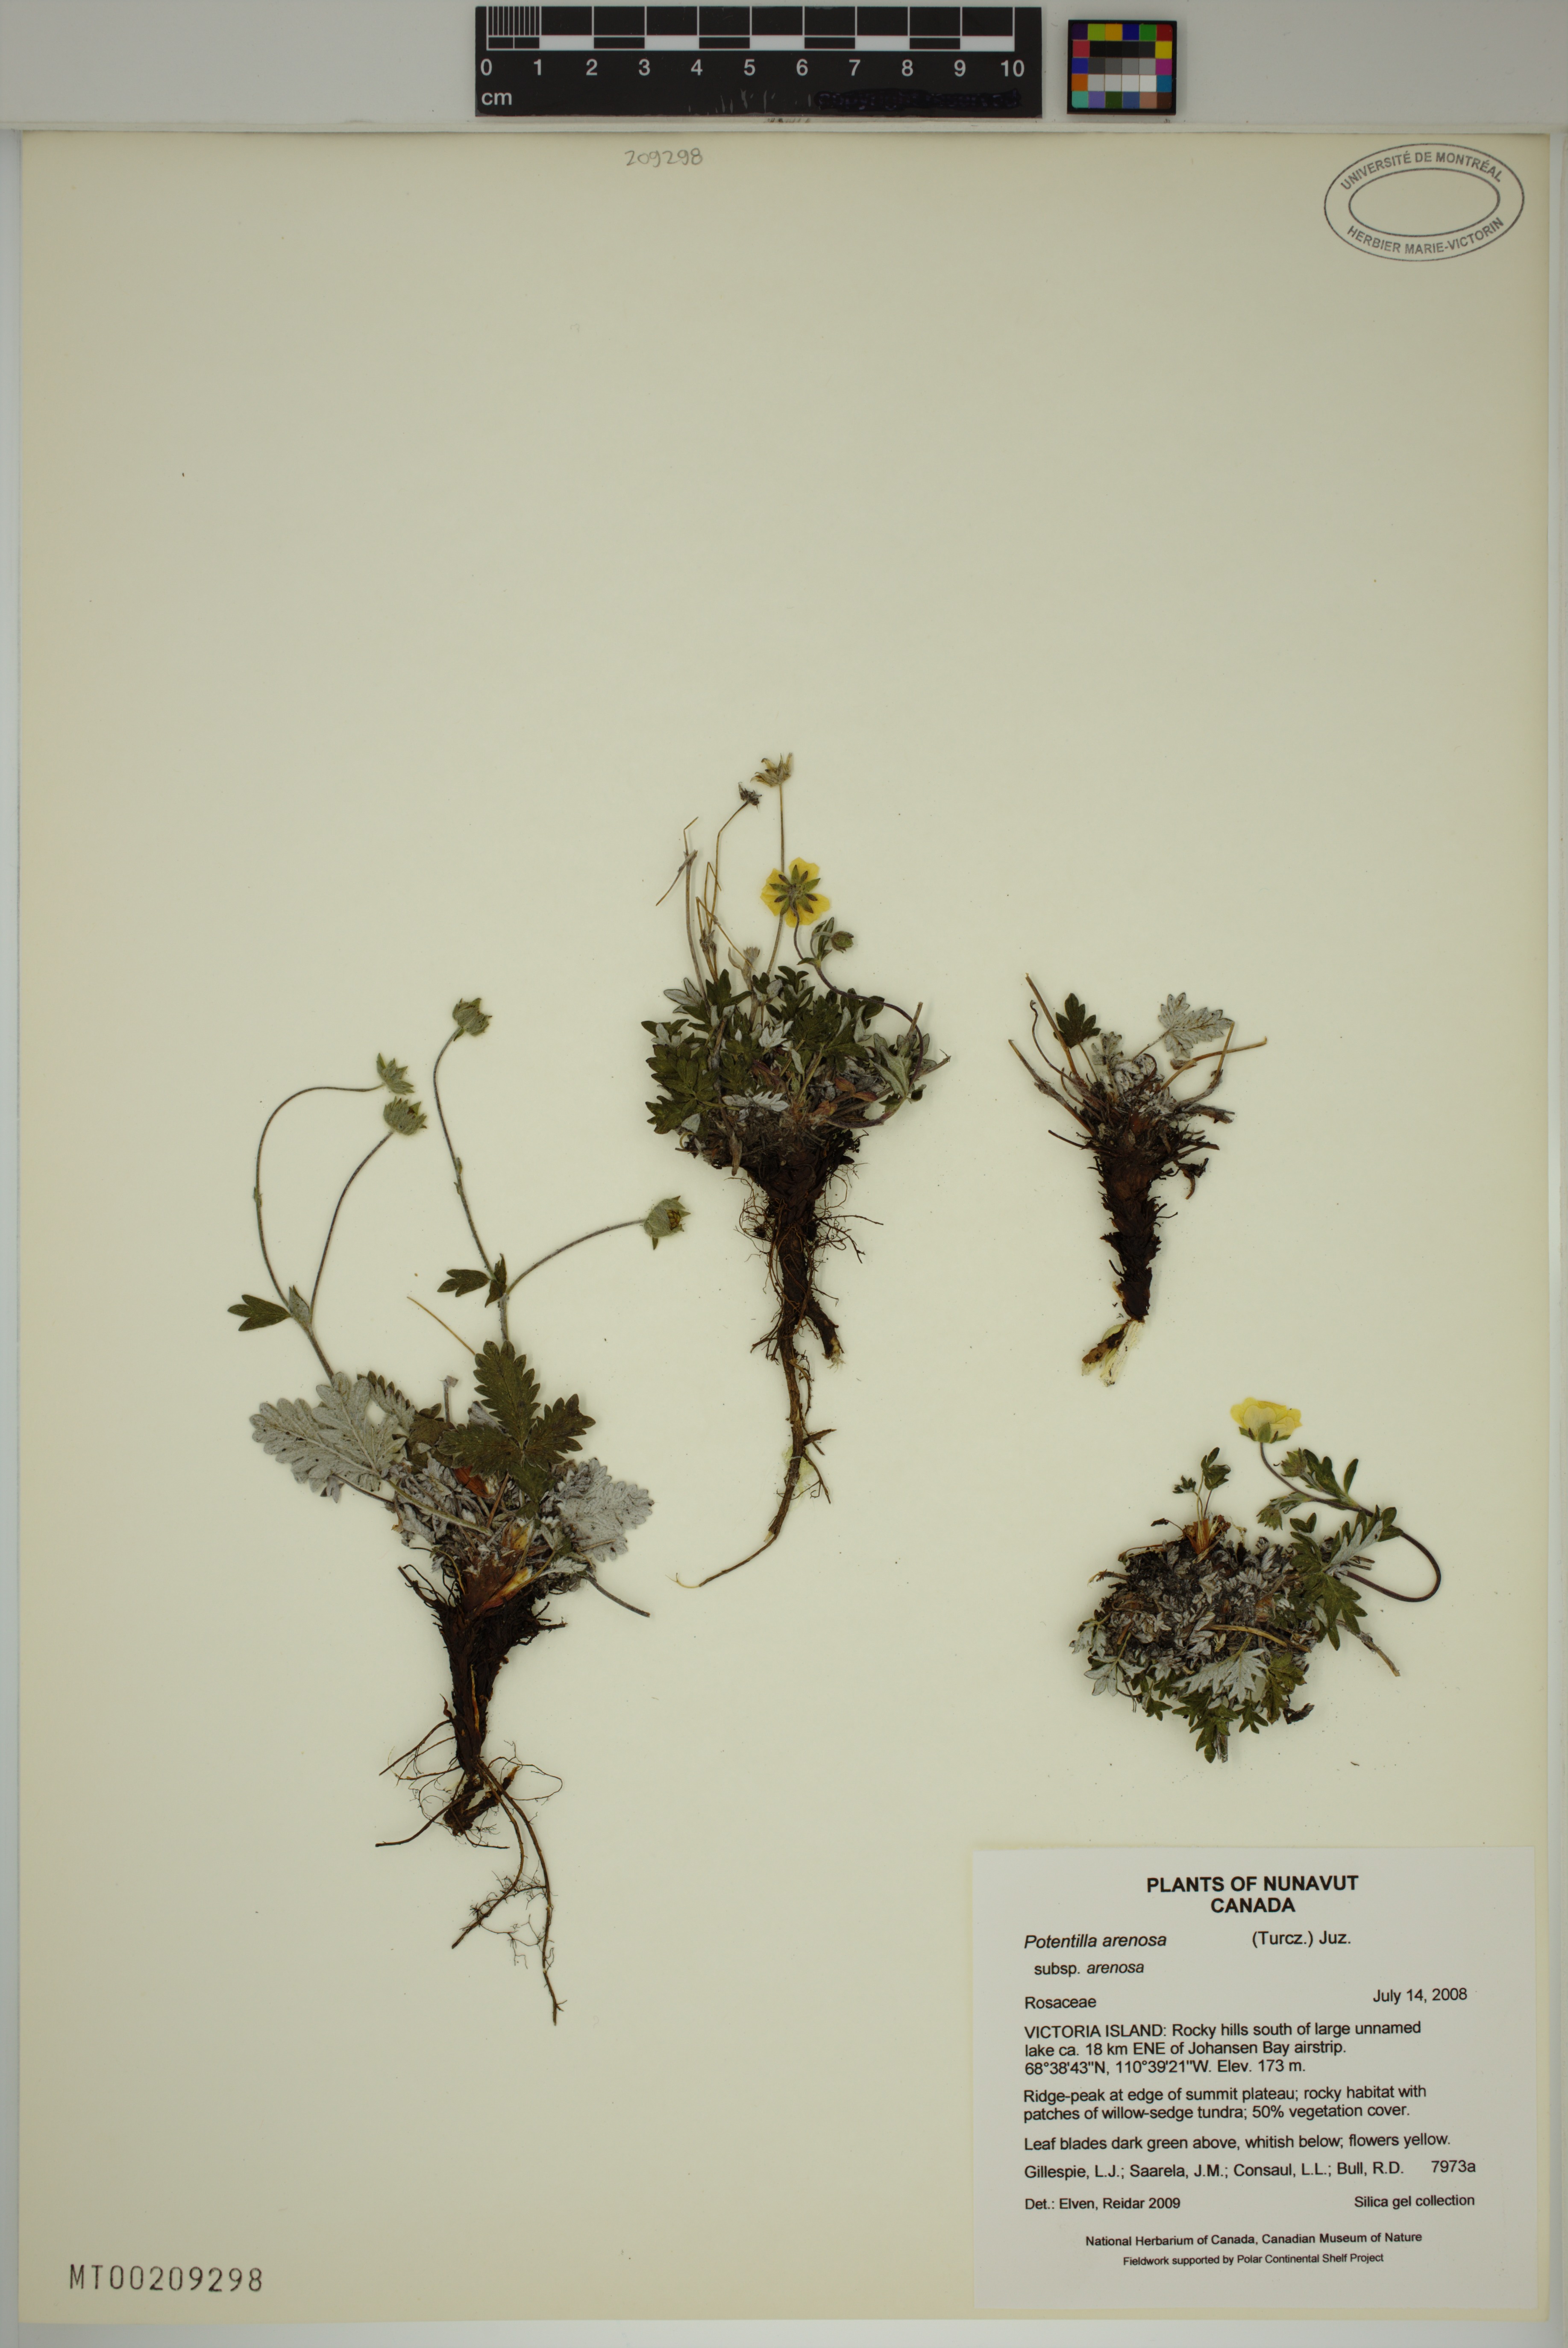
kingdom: Plantae
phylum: Tracheophyta
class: Magnoliopsida
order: Rosales
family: Rosaceae
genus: Potentilla
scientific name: Potentilla arenosa
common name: Bluff cinquefoil
